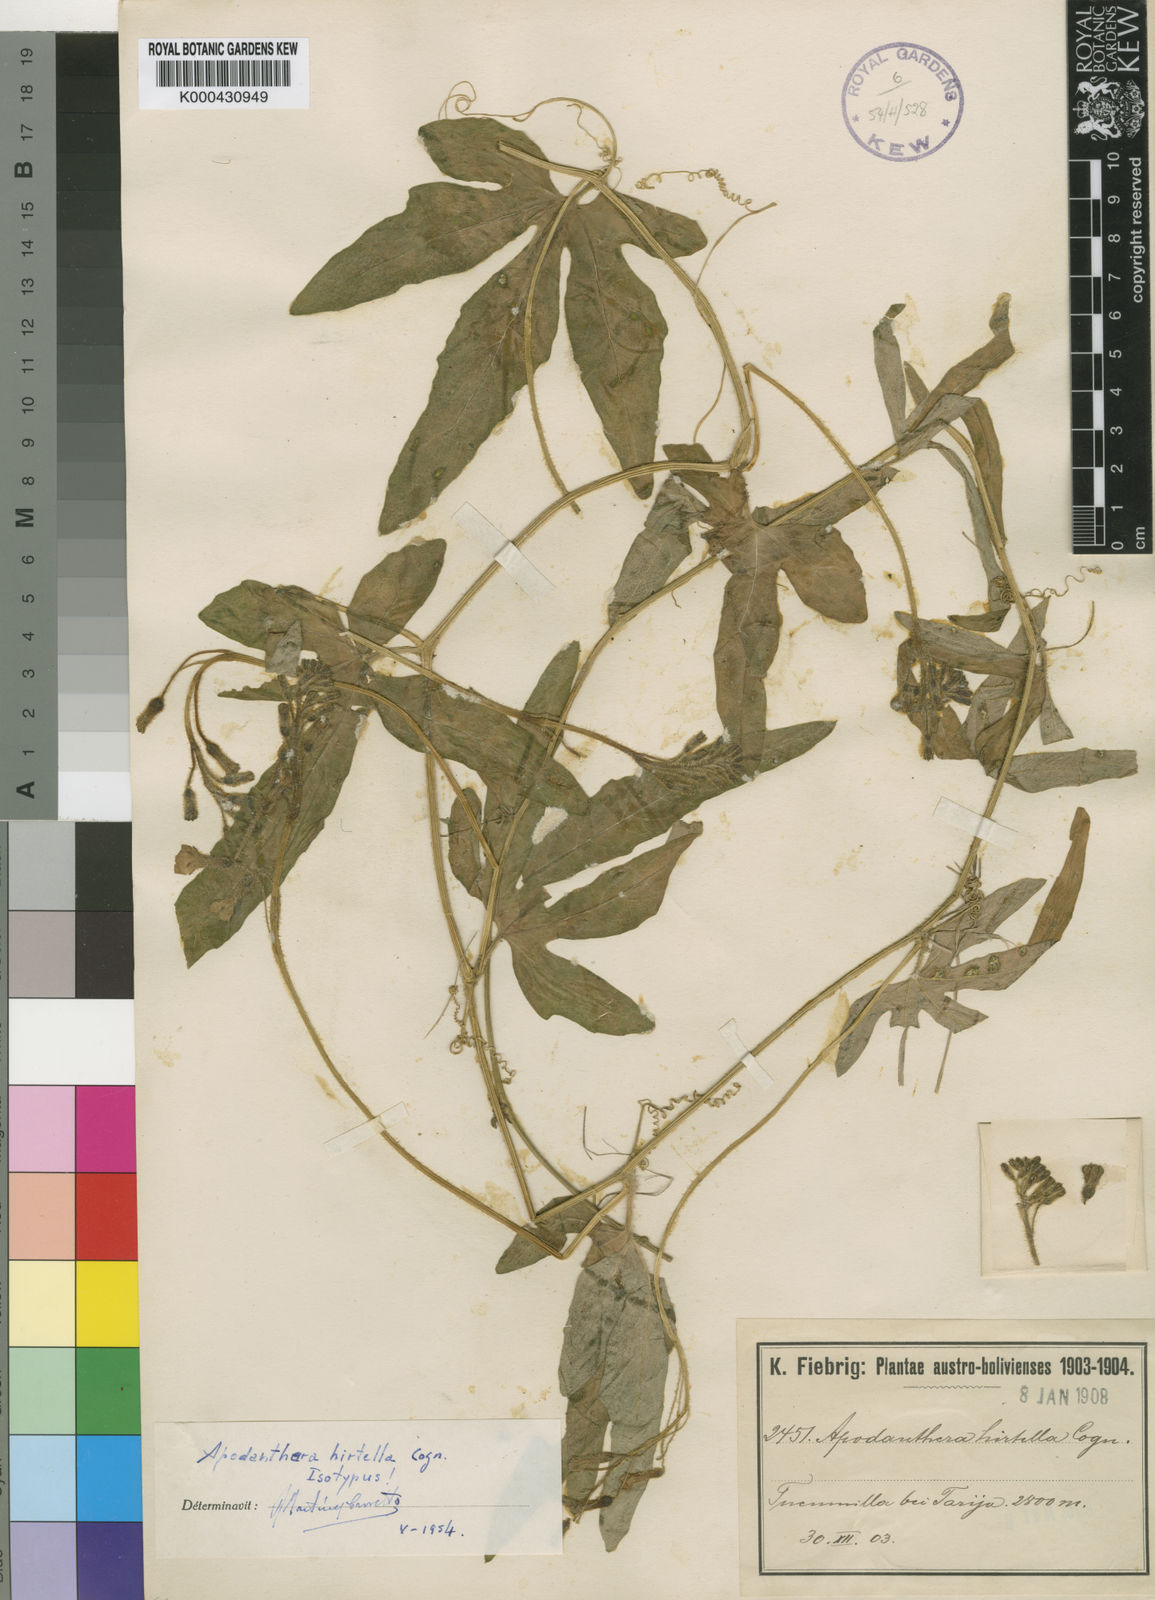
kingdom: Plantae
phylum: Tracheophyta
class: Magnoliopsida
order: Cucurbitales
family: Cucurbitaceae
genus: Apodanthera
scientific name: Apodanthera hirtella
